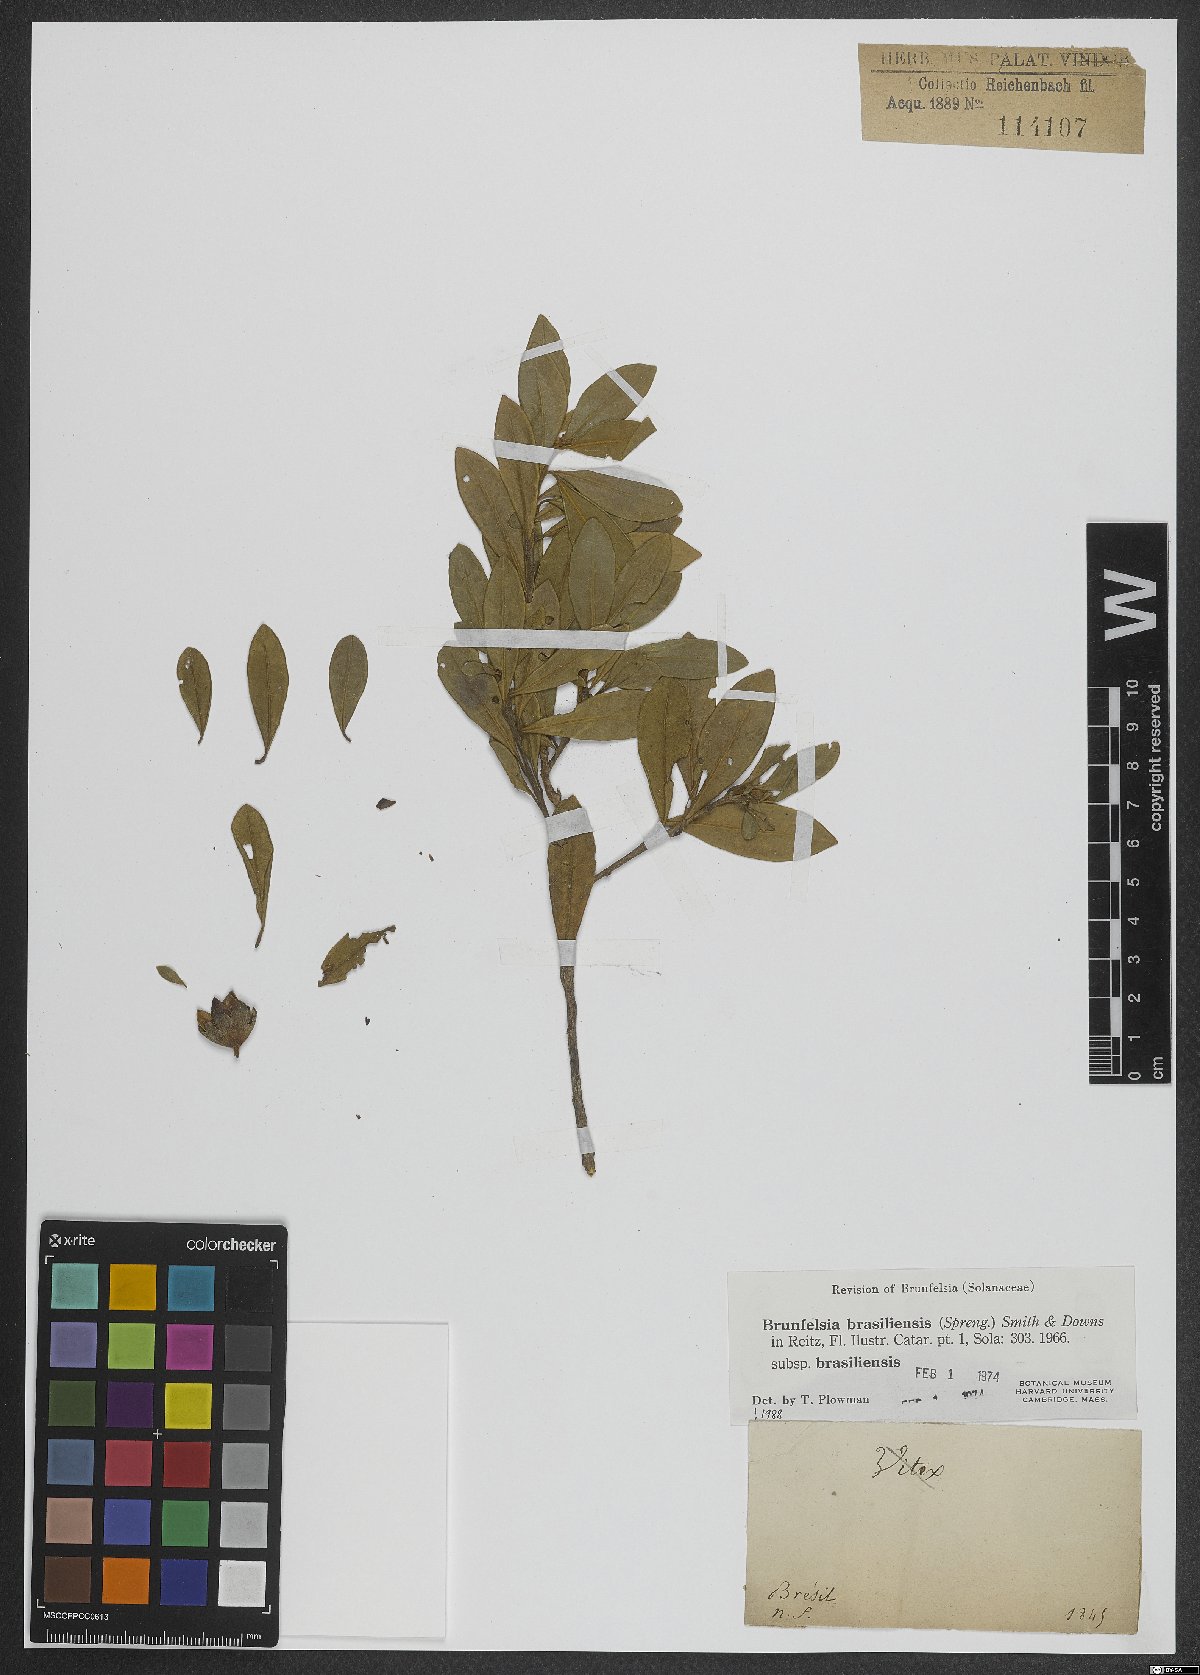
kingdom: Plantae
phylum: Tracheophyta
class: Magnoliopsida
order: Solanales
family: Solanaceae
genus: Brunfelsia
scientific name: Brunfelsia brasiliensis
